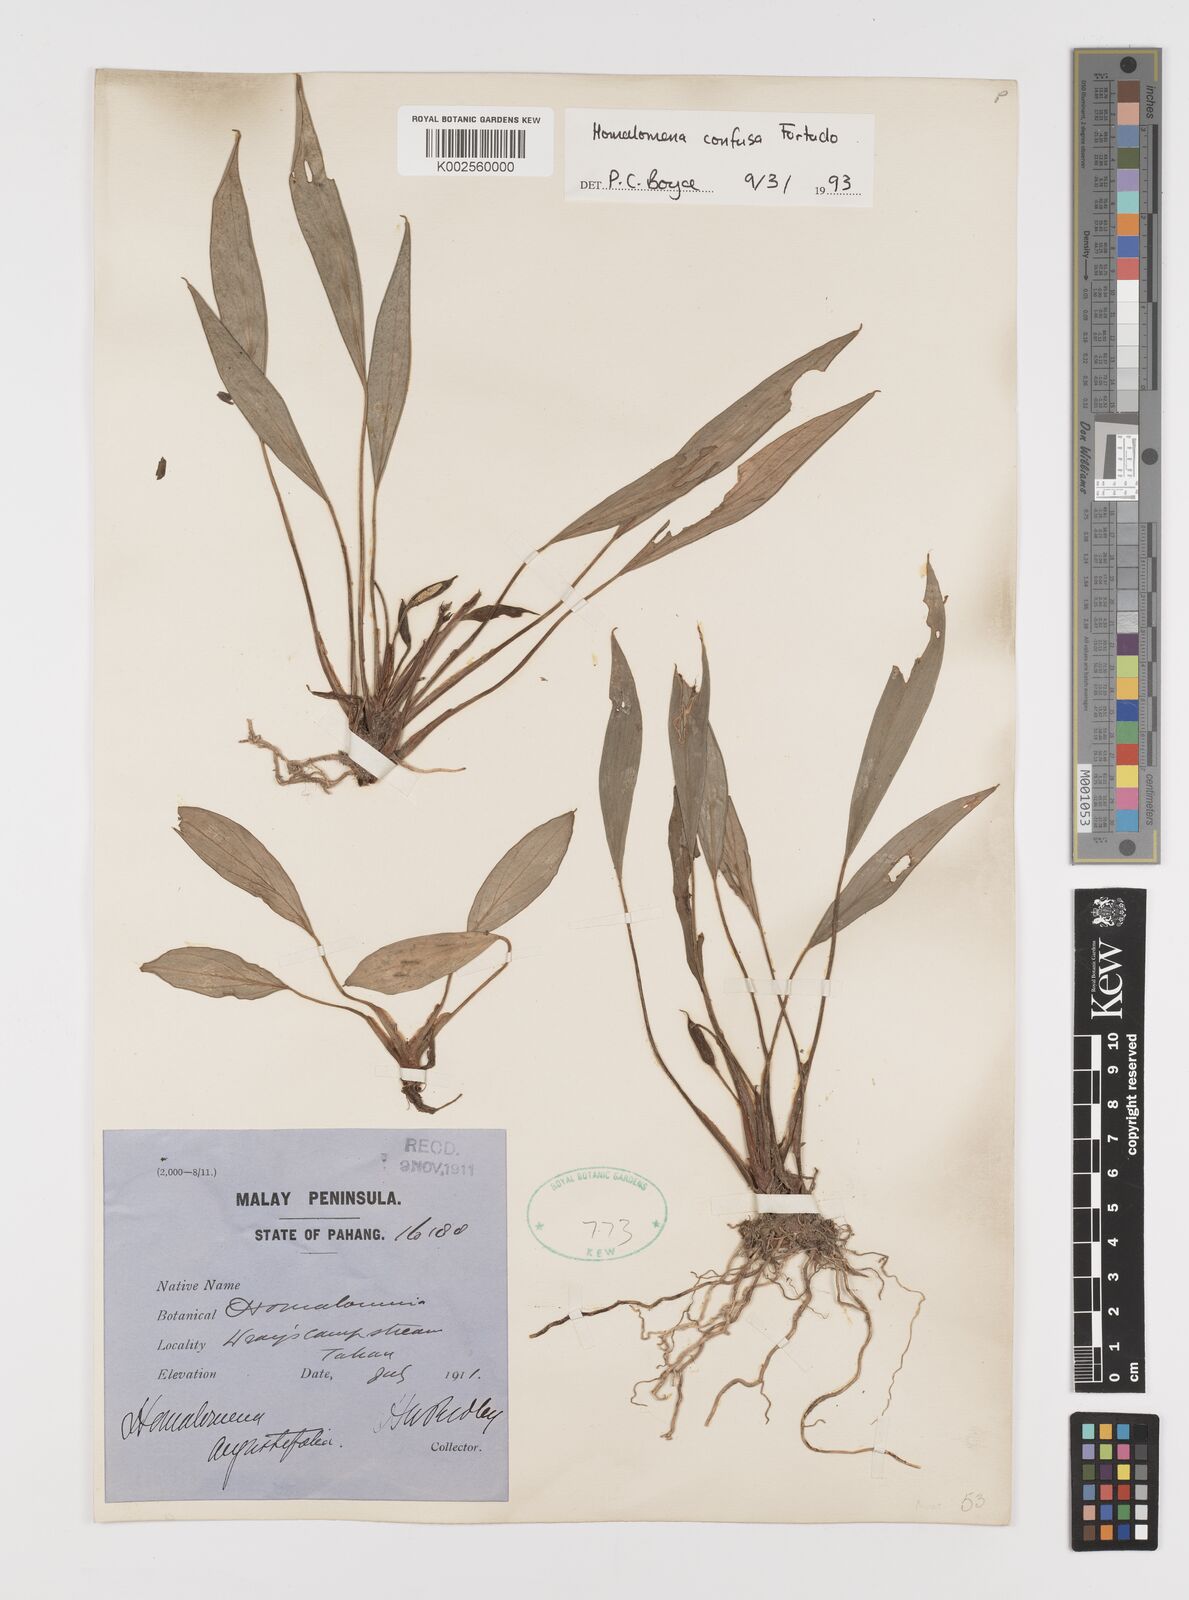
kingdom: Plantae
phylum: Tracheophyta
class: Liliopsida
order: Alismatales
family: Araceae
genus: Homalomena
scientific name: Homalomena confusa
